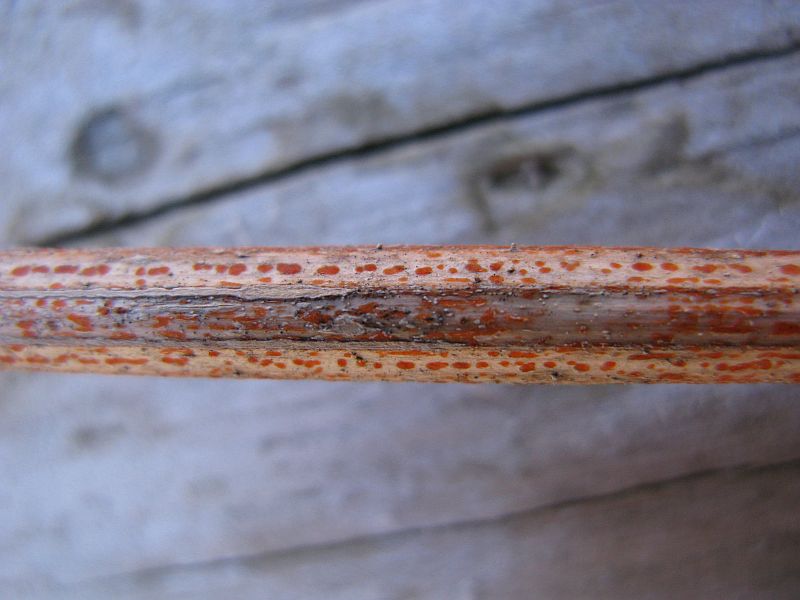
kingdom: Fungi
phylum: Ascomycota
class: Leotiomycetes
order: Helotiales
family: Calloriaceae
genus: Calloria
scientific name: Calloria urticae
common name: nælde-orangeskive
